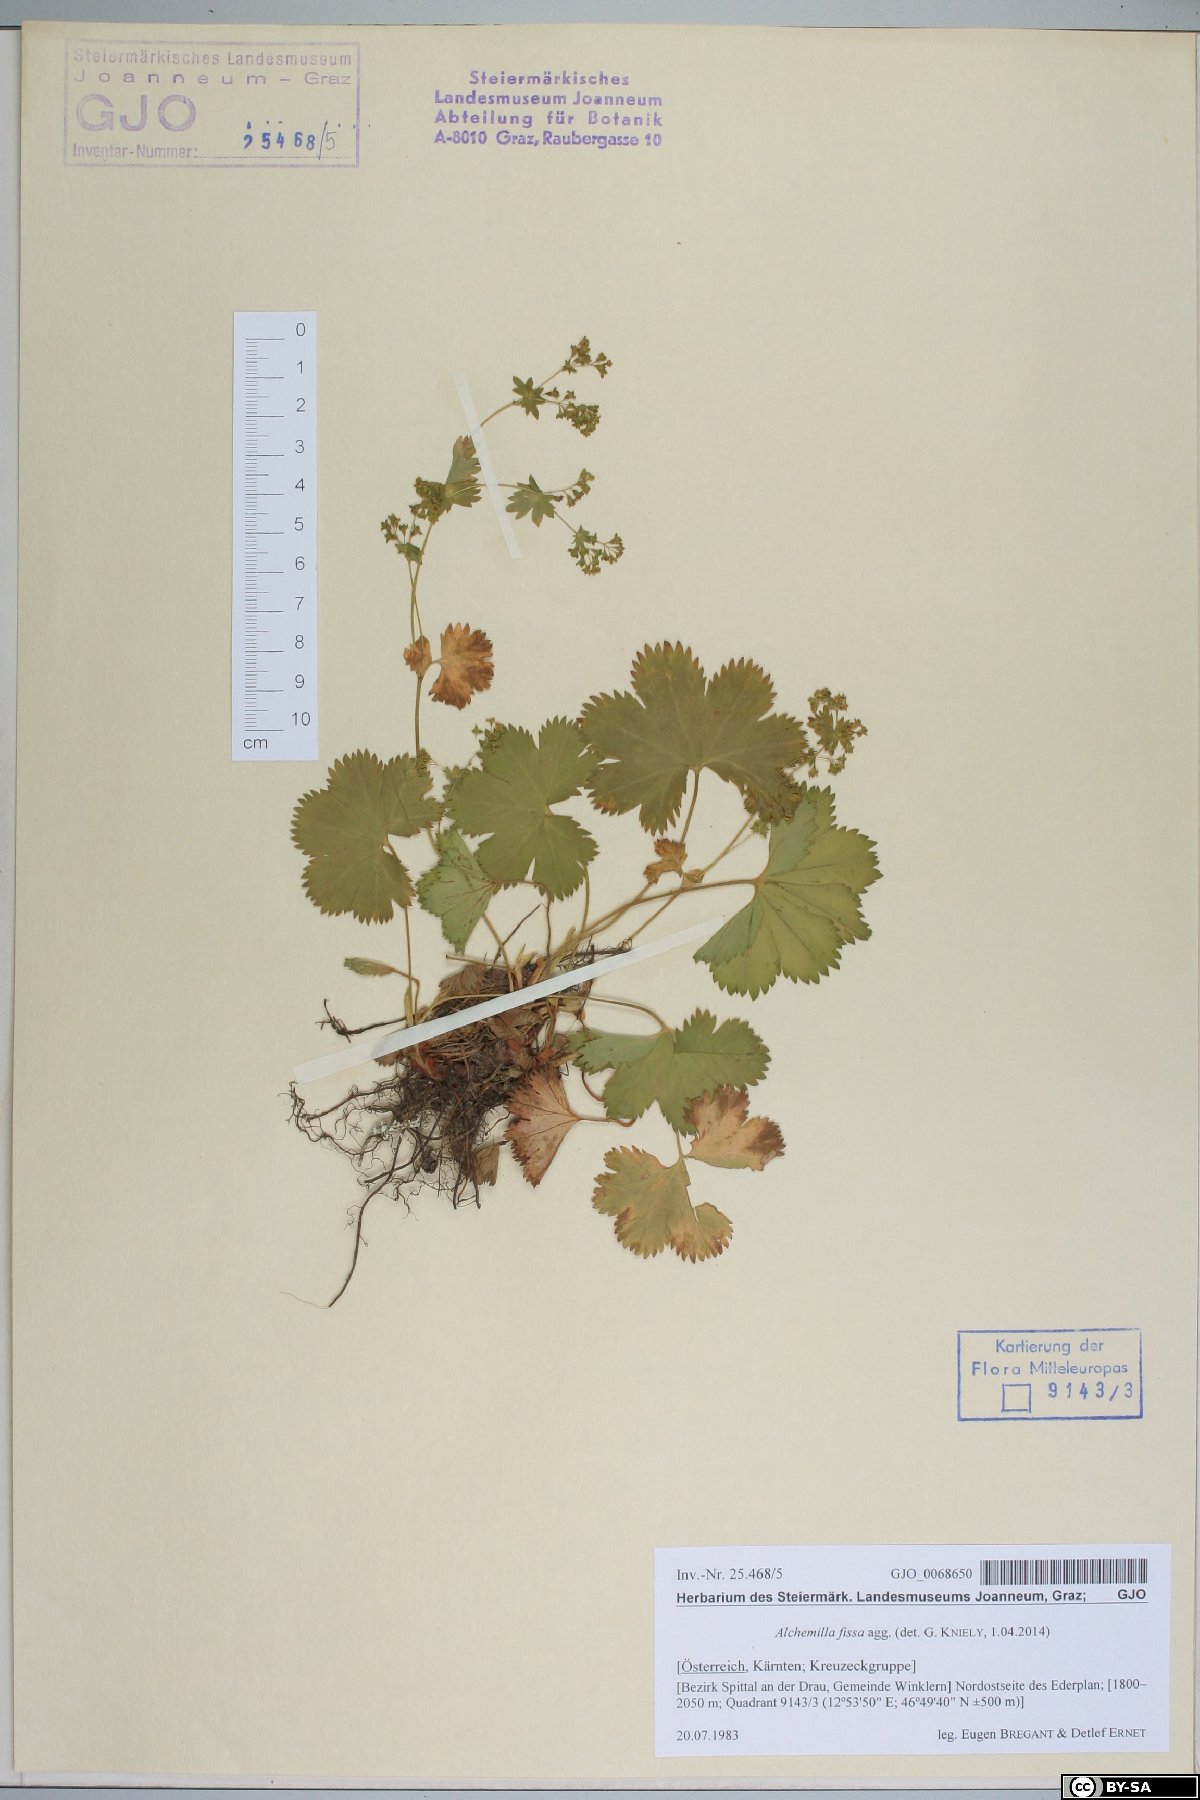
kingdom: Plantae
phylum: Tracheophyta
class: Magnoliopsida
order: Rosales
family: Rosaceae
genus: Alchemilla
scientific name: Alchemilla fissa
